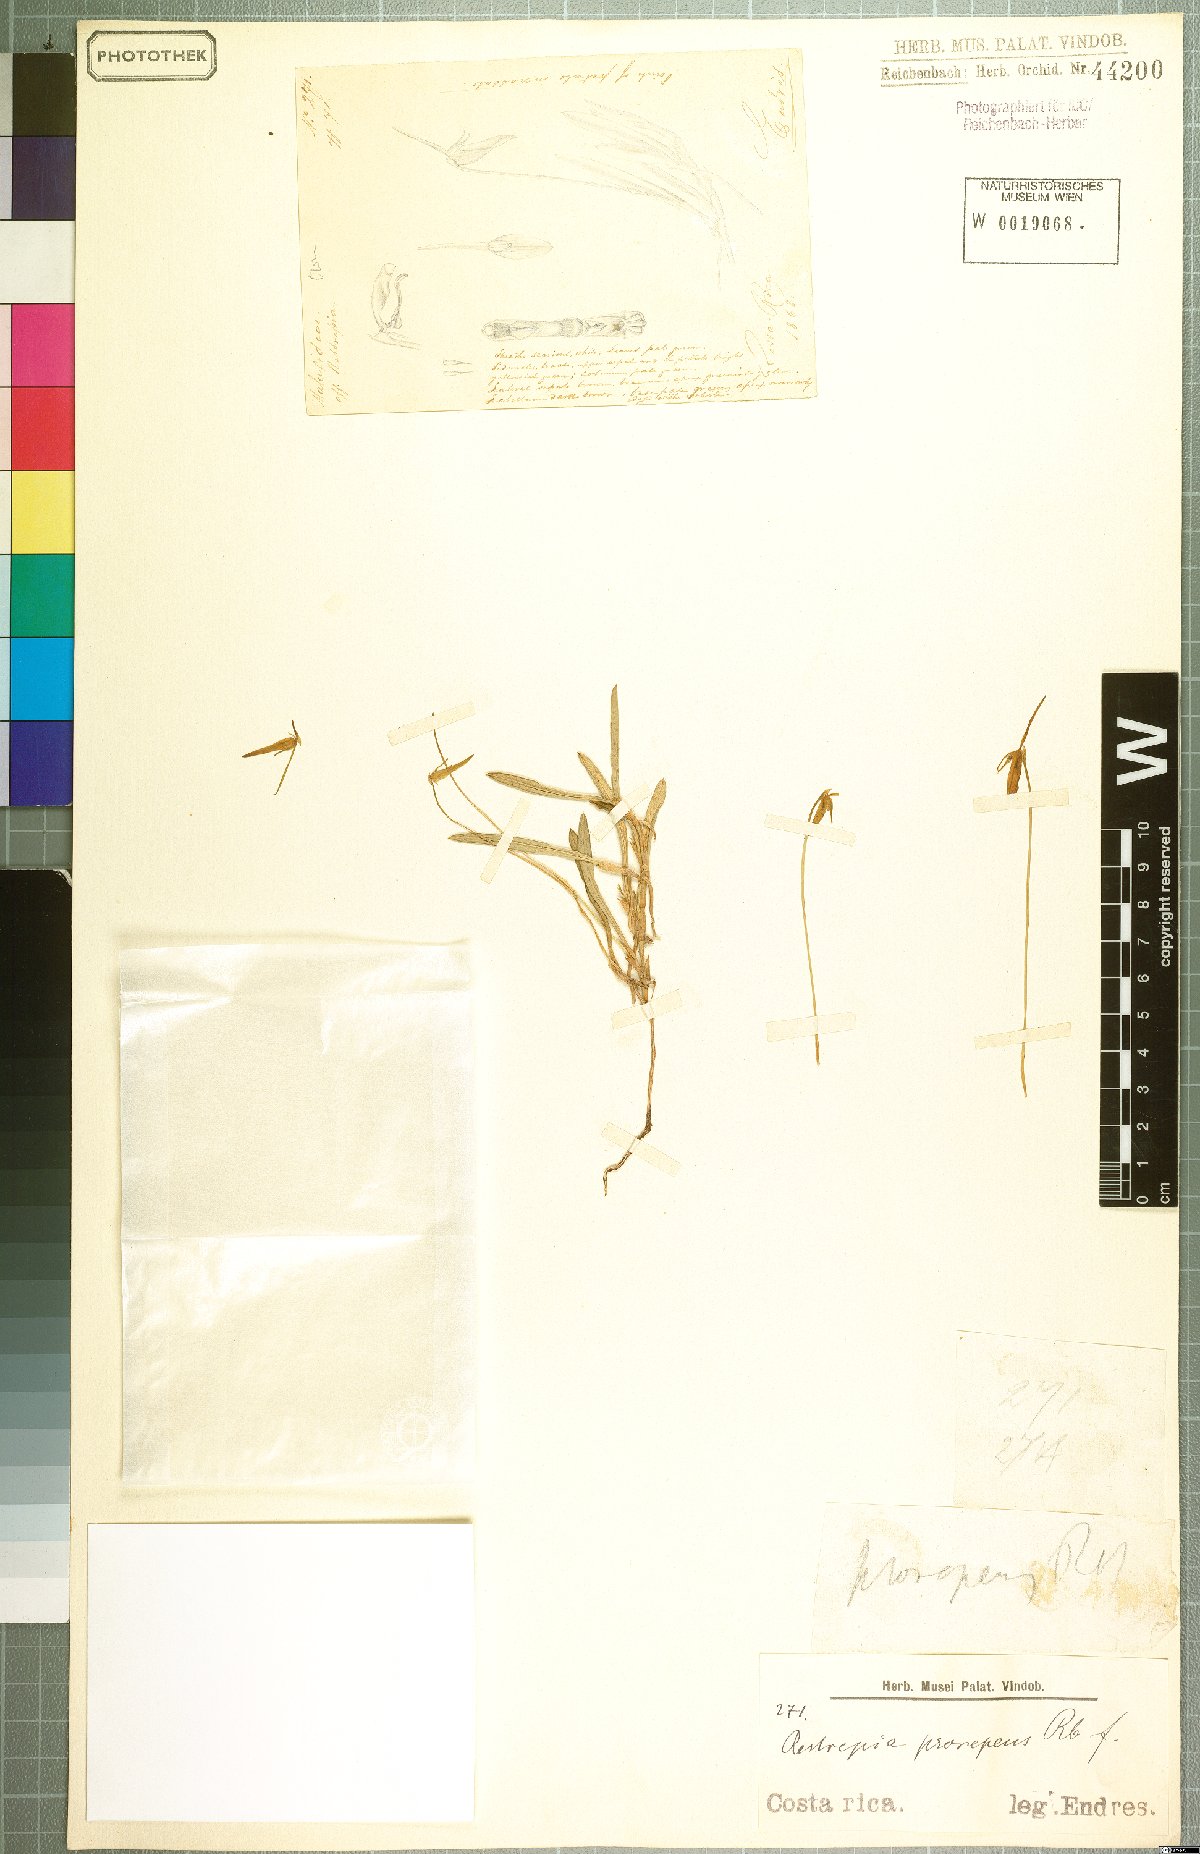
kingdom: Plantae
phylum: Tracheophyta
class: Liliopsida
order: Asparagales
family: Orchidaceae
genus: Barbosella
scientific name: Barbosella prorepens
